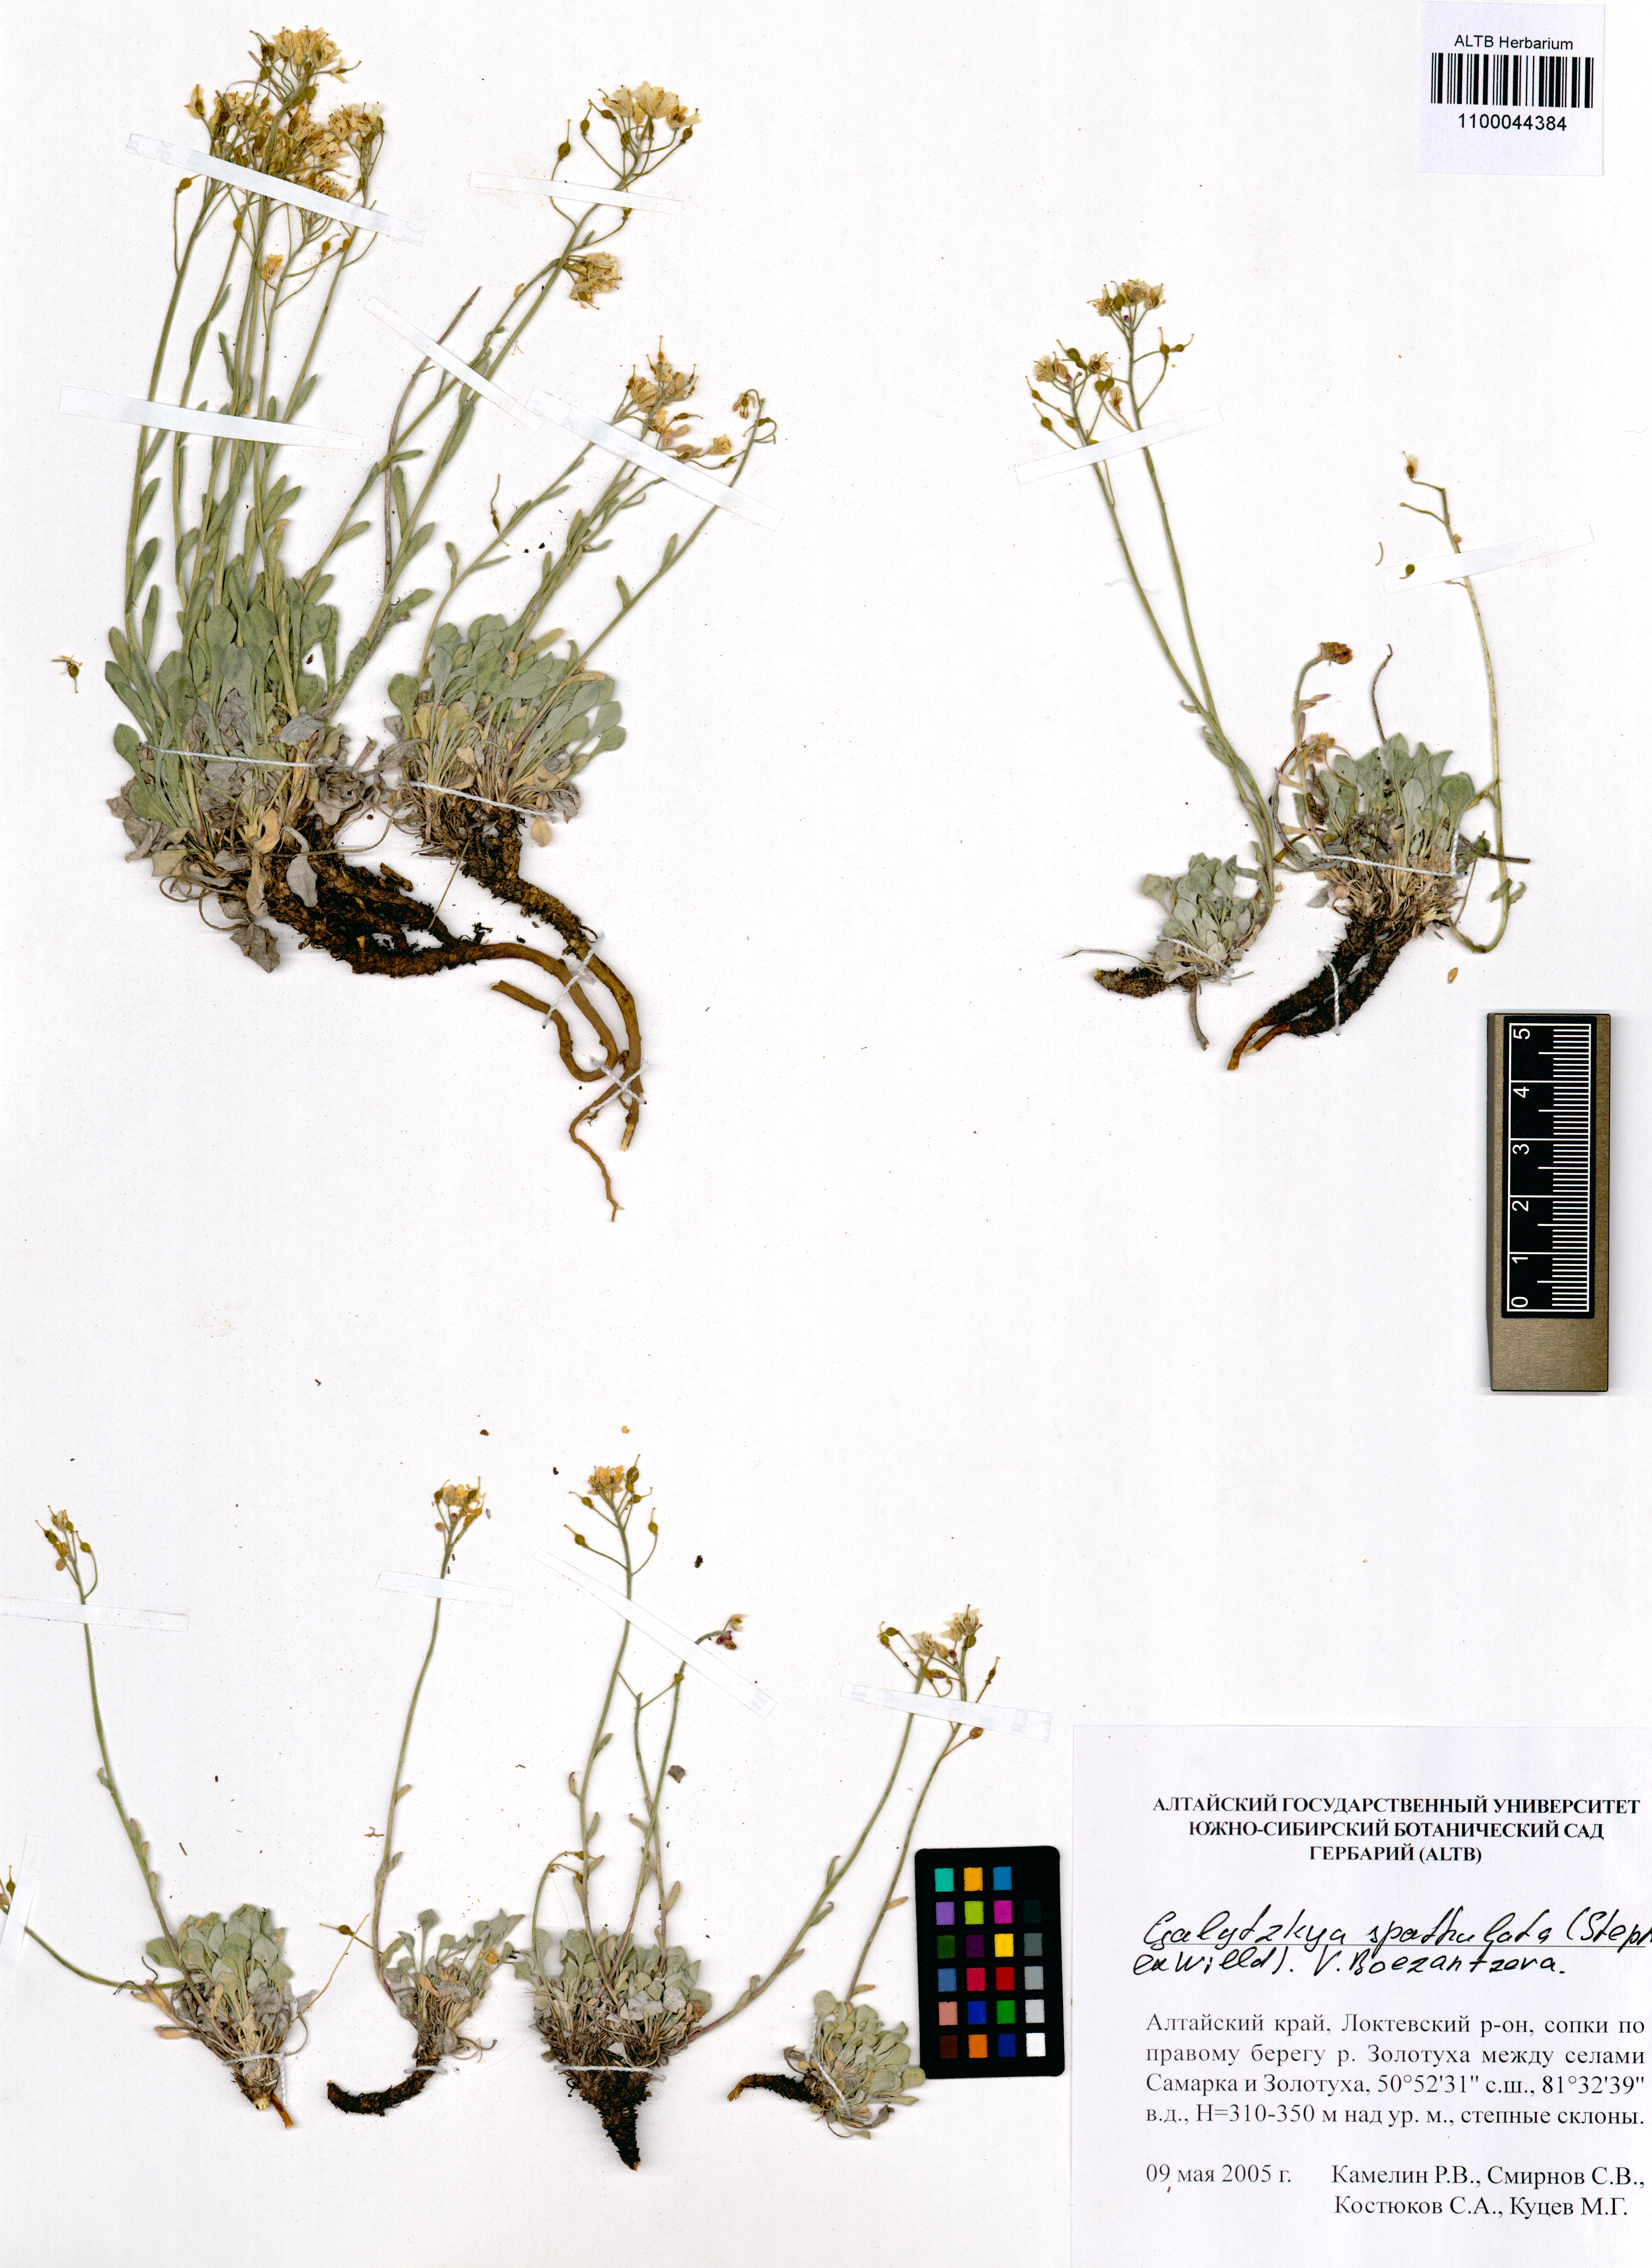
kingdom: Plantae
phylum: Tracheophyta
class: Magnoliopsida
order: Brassicales
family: Brassicaceae
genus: Galitzkya
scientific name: Galitzkya spathulata
